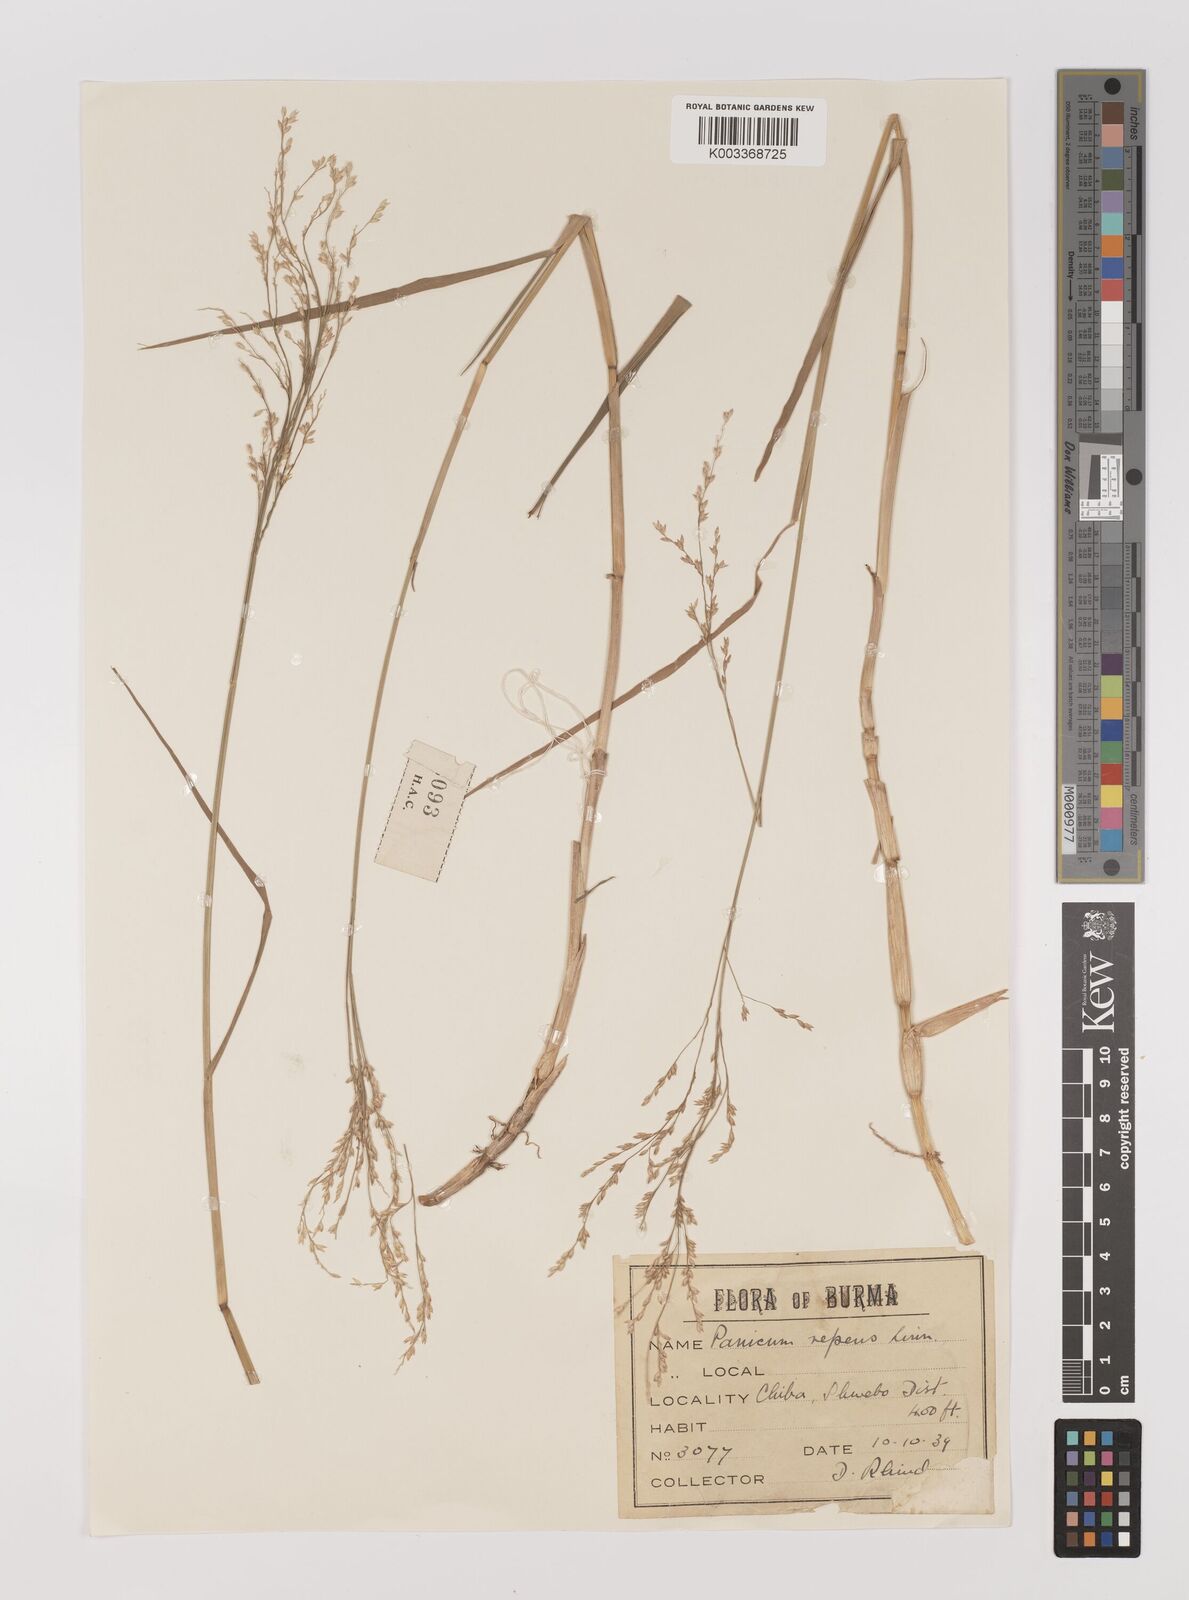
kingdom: Plantae
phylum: Tracheophyta
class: Liliopsida
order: Poales
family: Poaceae
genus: Panicum
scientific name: Panicum repens
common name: Torpedo grass
